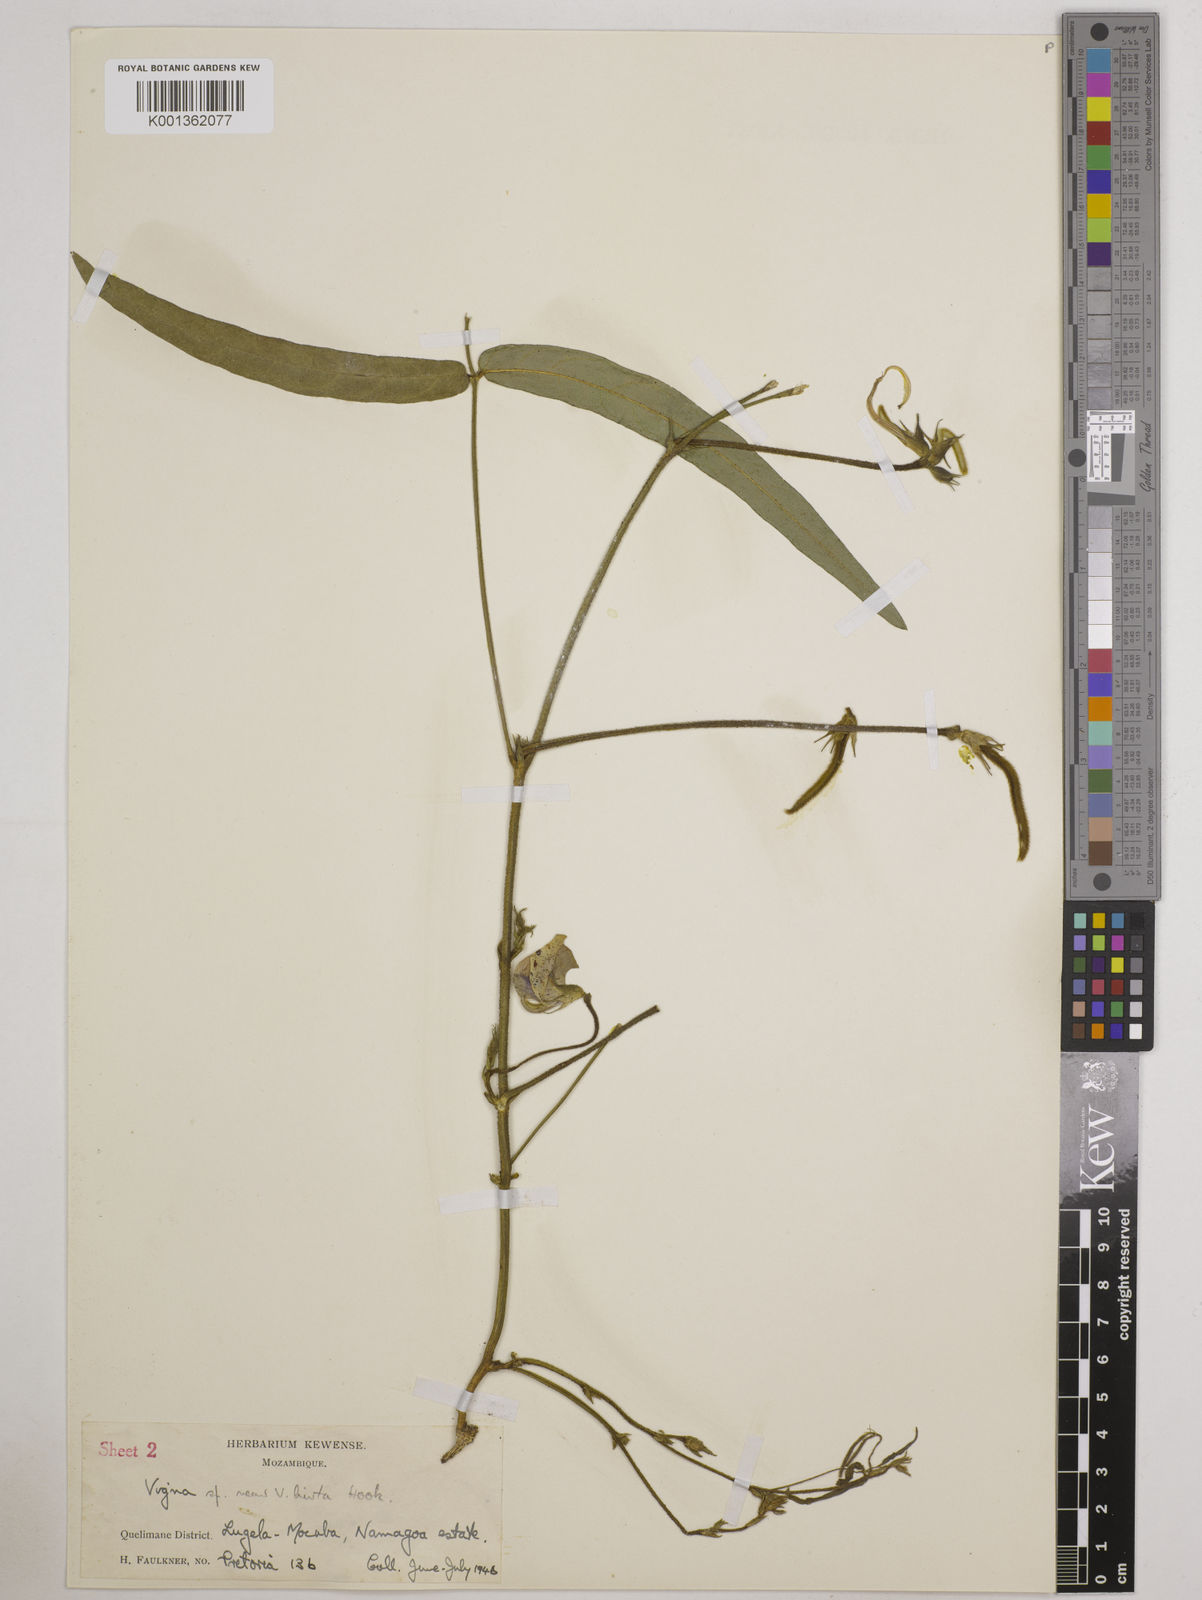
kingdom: Plantae
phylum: Tracheophyta
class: Magnoliopsida
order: Fabales
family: Fabaceae
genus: Vigna
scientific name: Vigna vexillata
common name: Zombi pea
